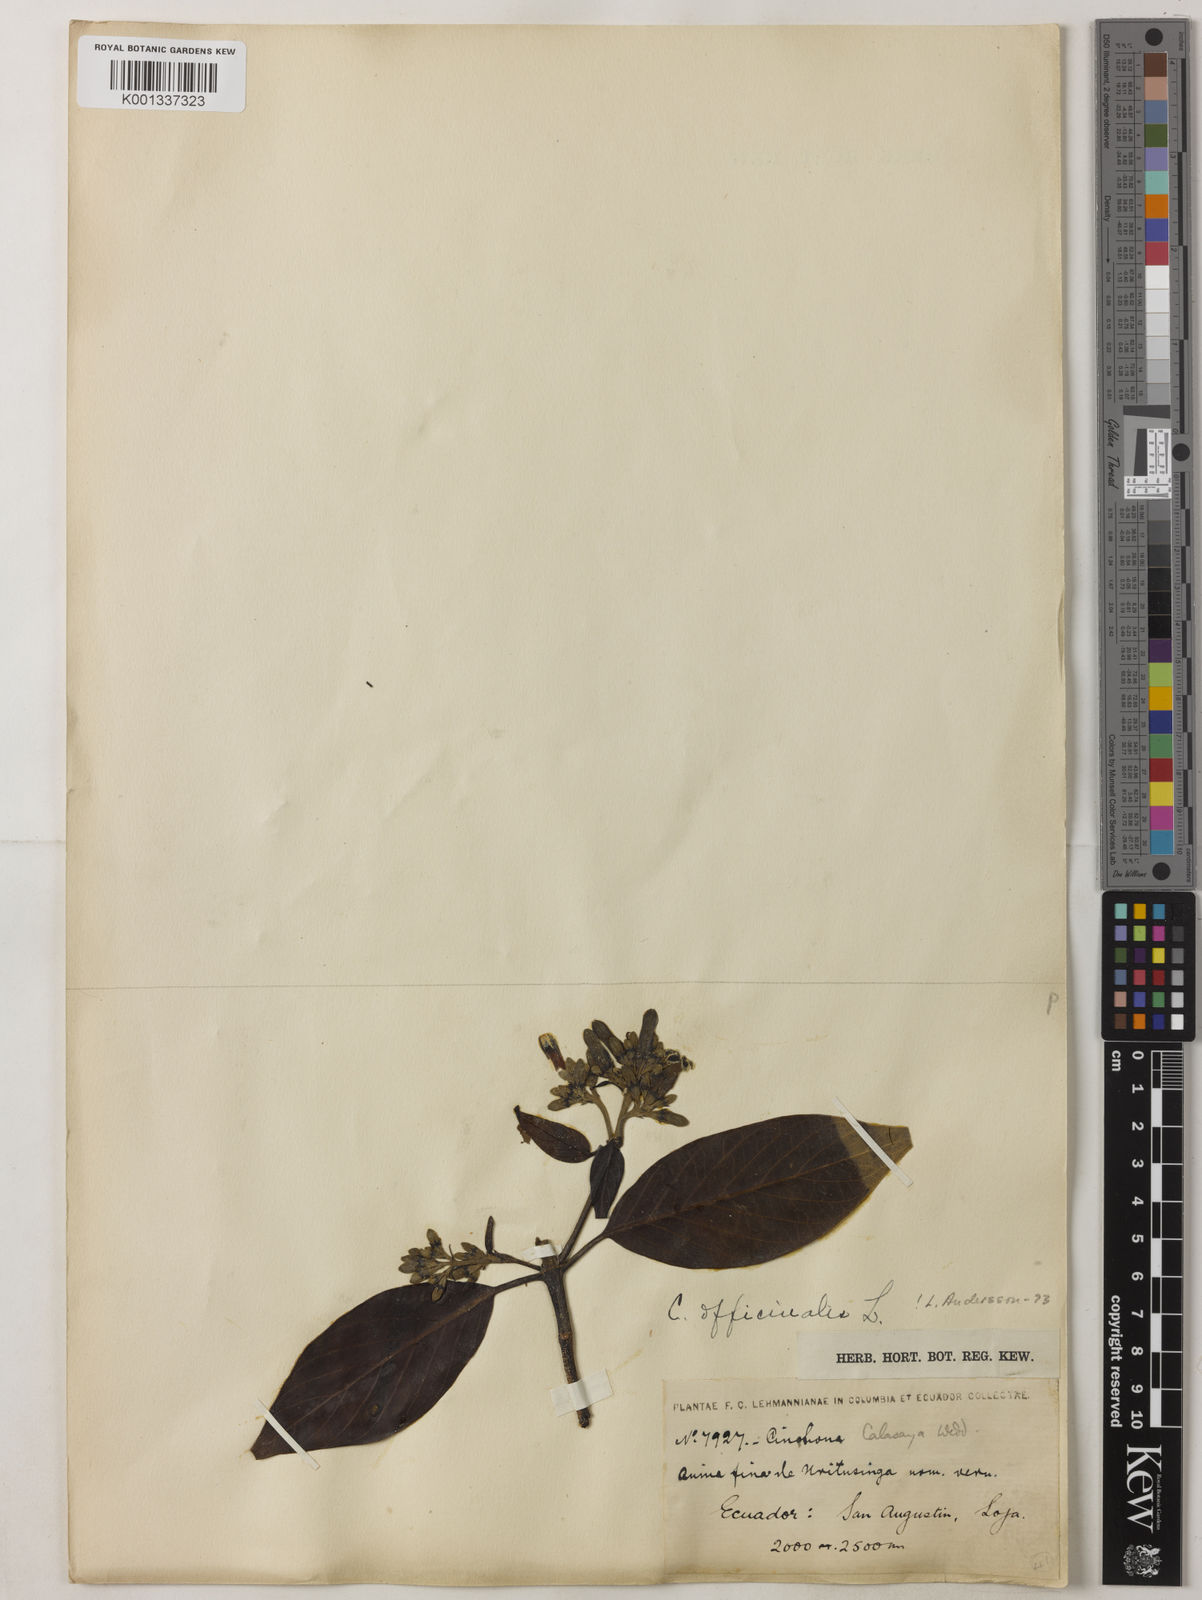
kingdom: Plantae
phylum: Tracheophyta
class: Magnoliopsida
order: Gentianales
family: Rubiaceae
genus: Cinchona
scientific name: Cinchona officinalis
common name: Lojabark
